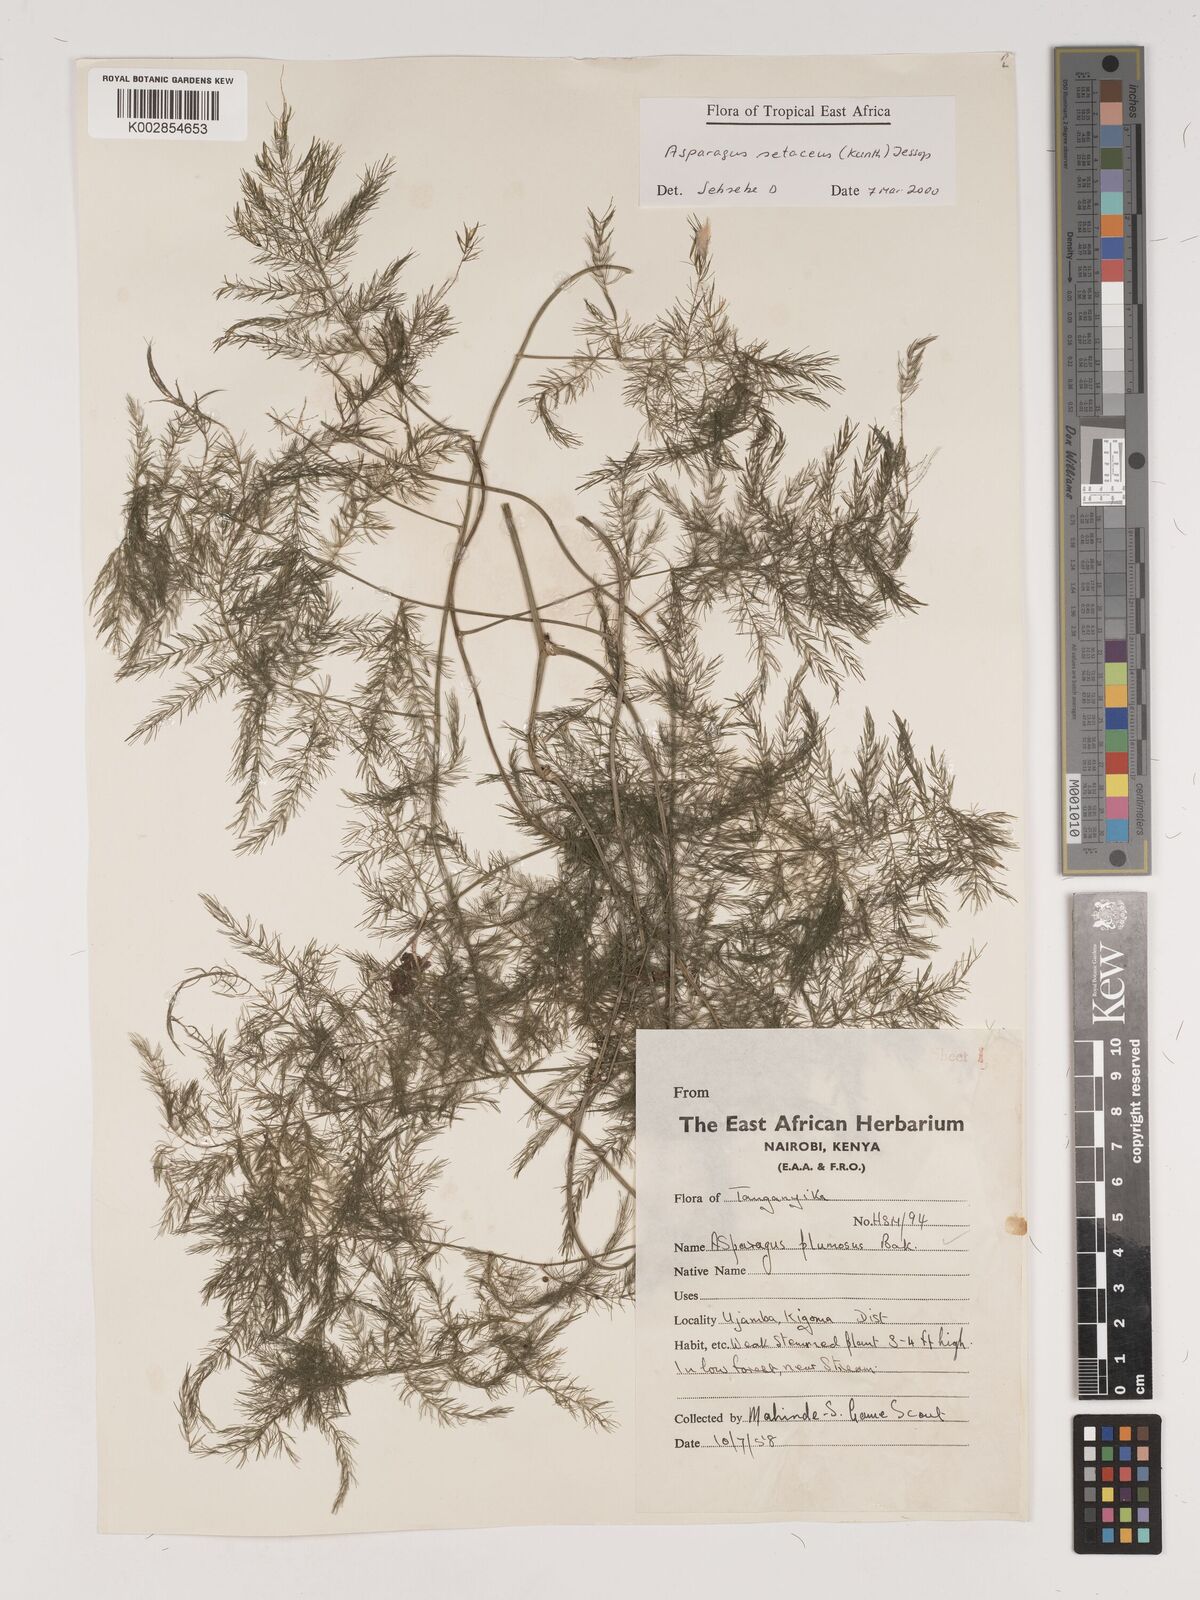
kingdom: Plantae
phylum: Tracheophyta
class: Liliopsida
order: Asparagales
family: Asparagaceae
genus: Asparagus
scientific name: Asparagus setaceus
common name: Common asparagus fern
